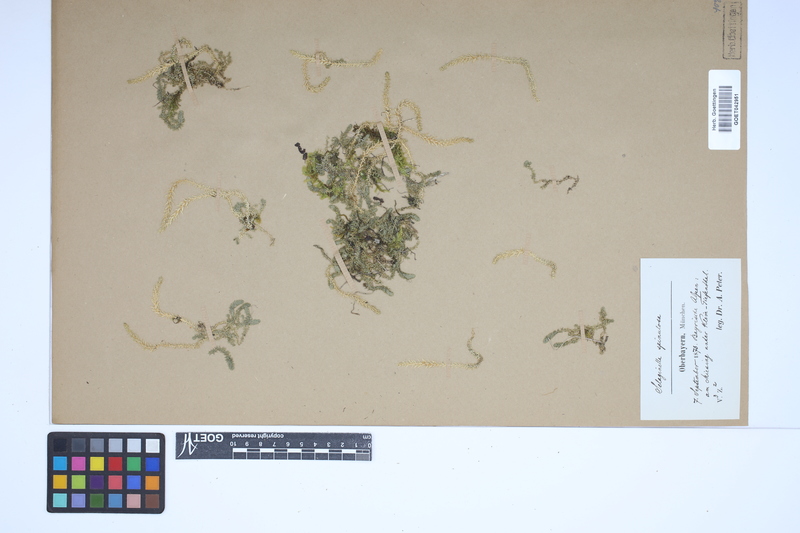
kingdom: Plantae
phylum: Tracheophyta
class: Lycopodiopsida
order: Selaginellales
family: Selaginellaceae
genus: Selaginella
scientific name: Selaginella selaginoides
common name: Prickly mountain-moss
